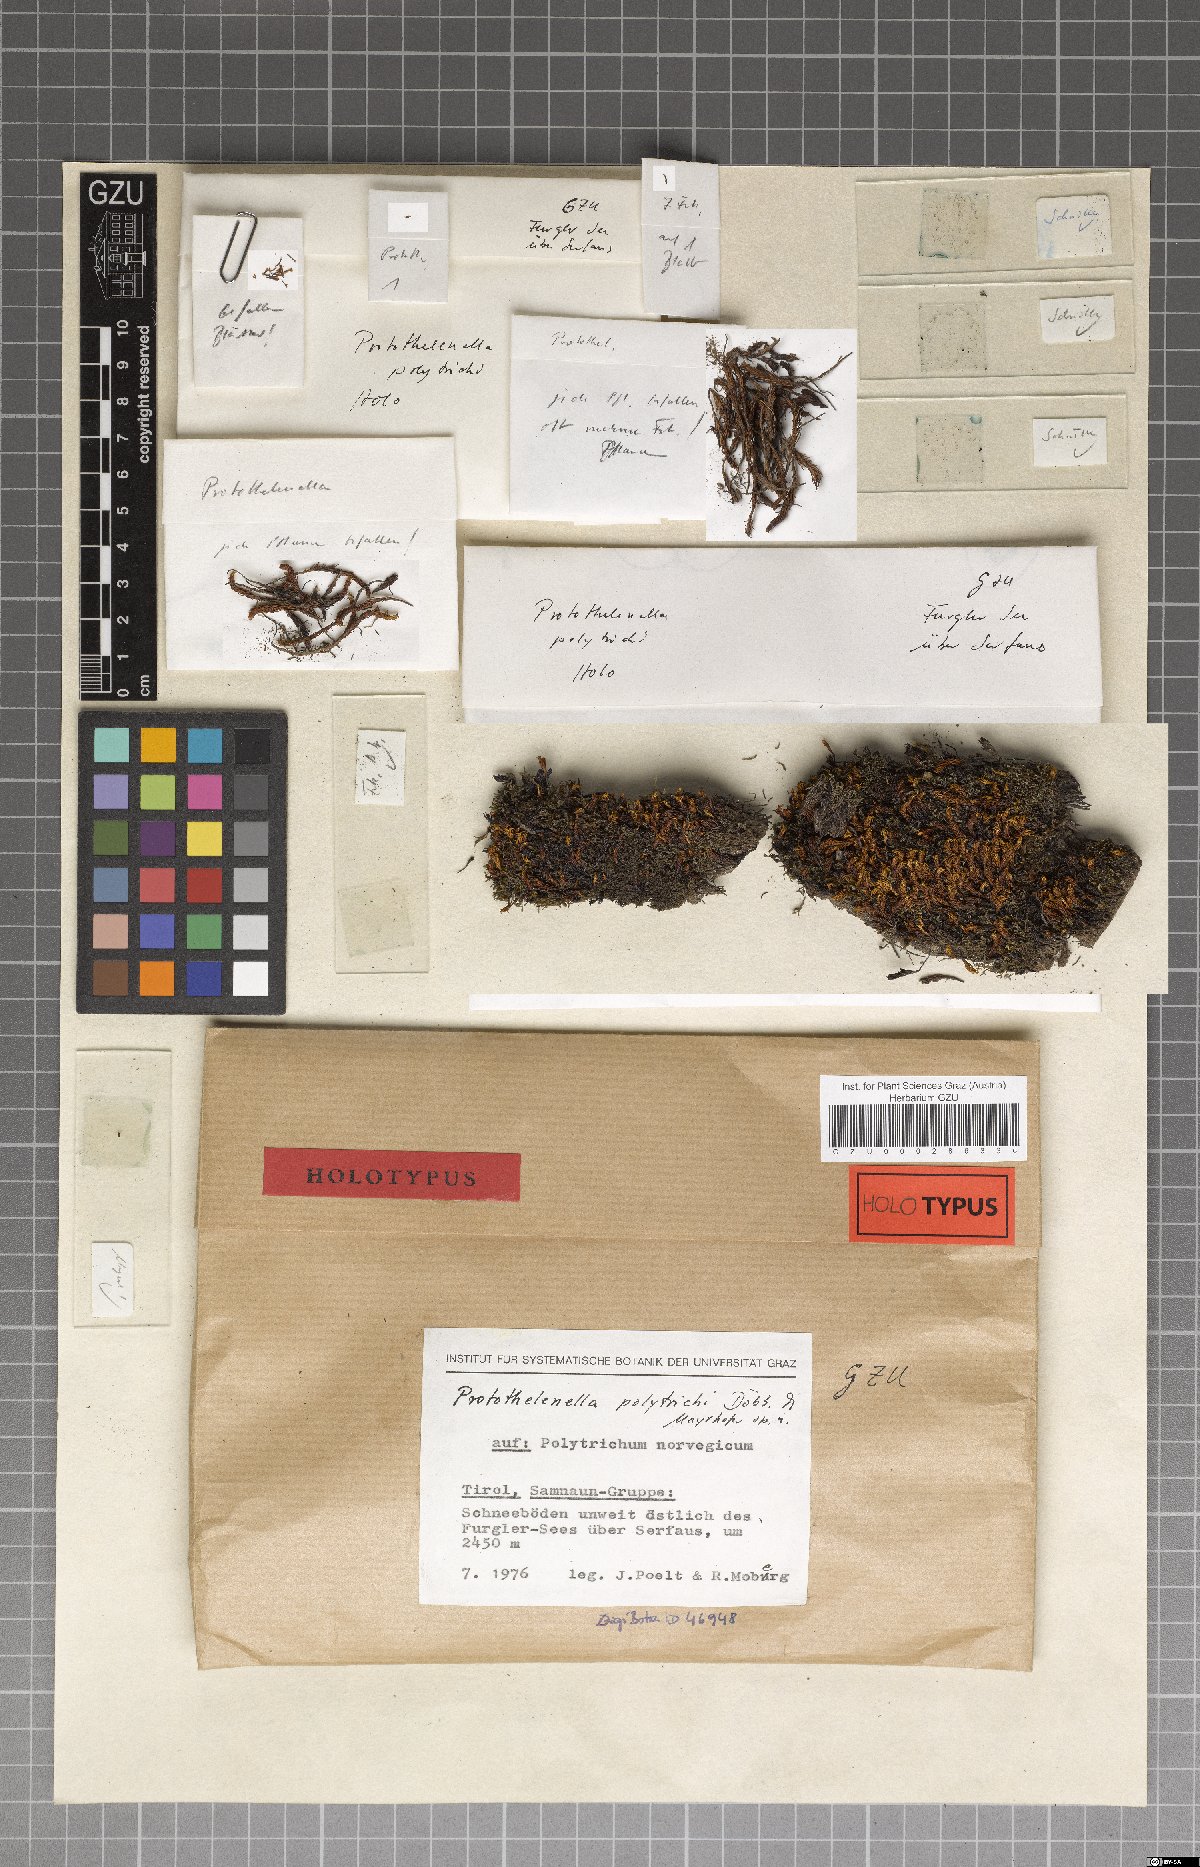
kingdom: Fungi
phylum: Ascomycota
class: Lecanoromycetes
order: Ostropales
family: Protothelenellaceae
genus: Protothelenella
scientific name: Protothelenella polytrichi
